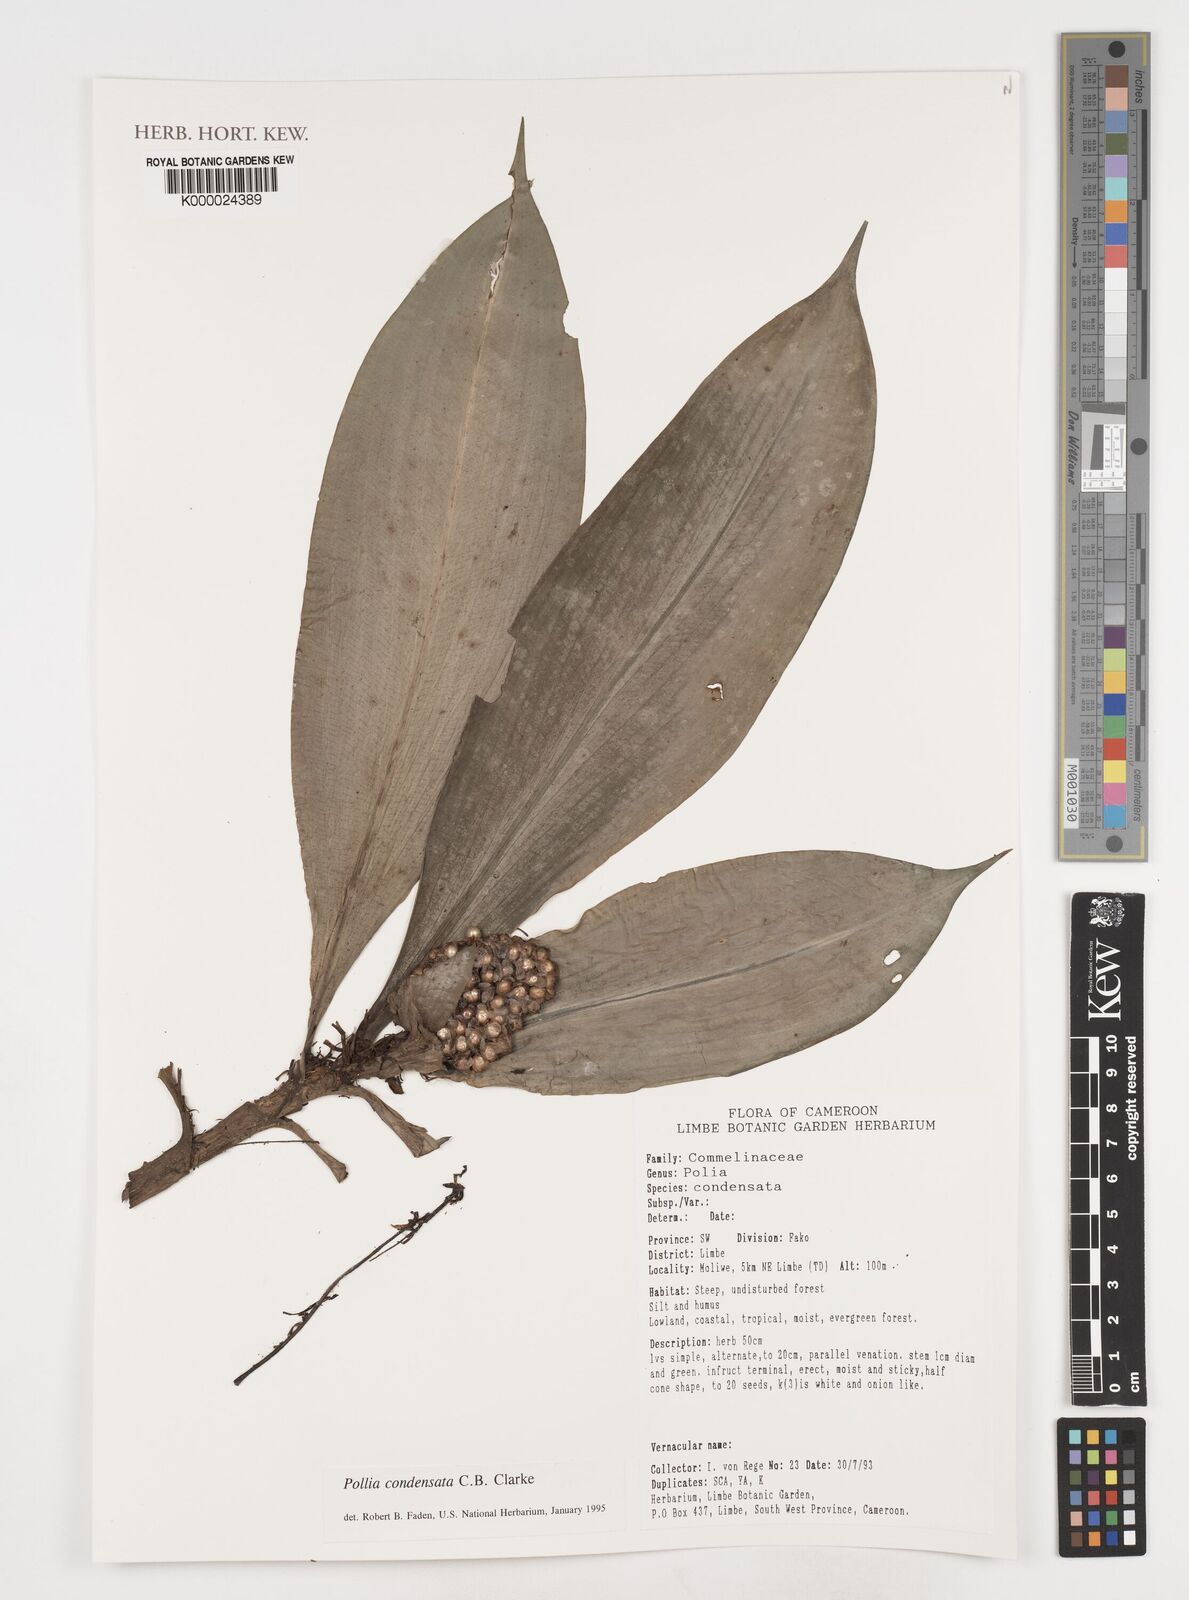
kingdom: Plantae
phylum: Tracheophyta
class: Liliopsida
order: Commelinales
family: Commelinaceae
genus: Pollia
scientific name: Pollia condensata
